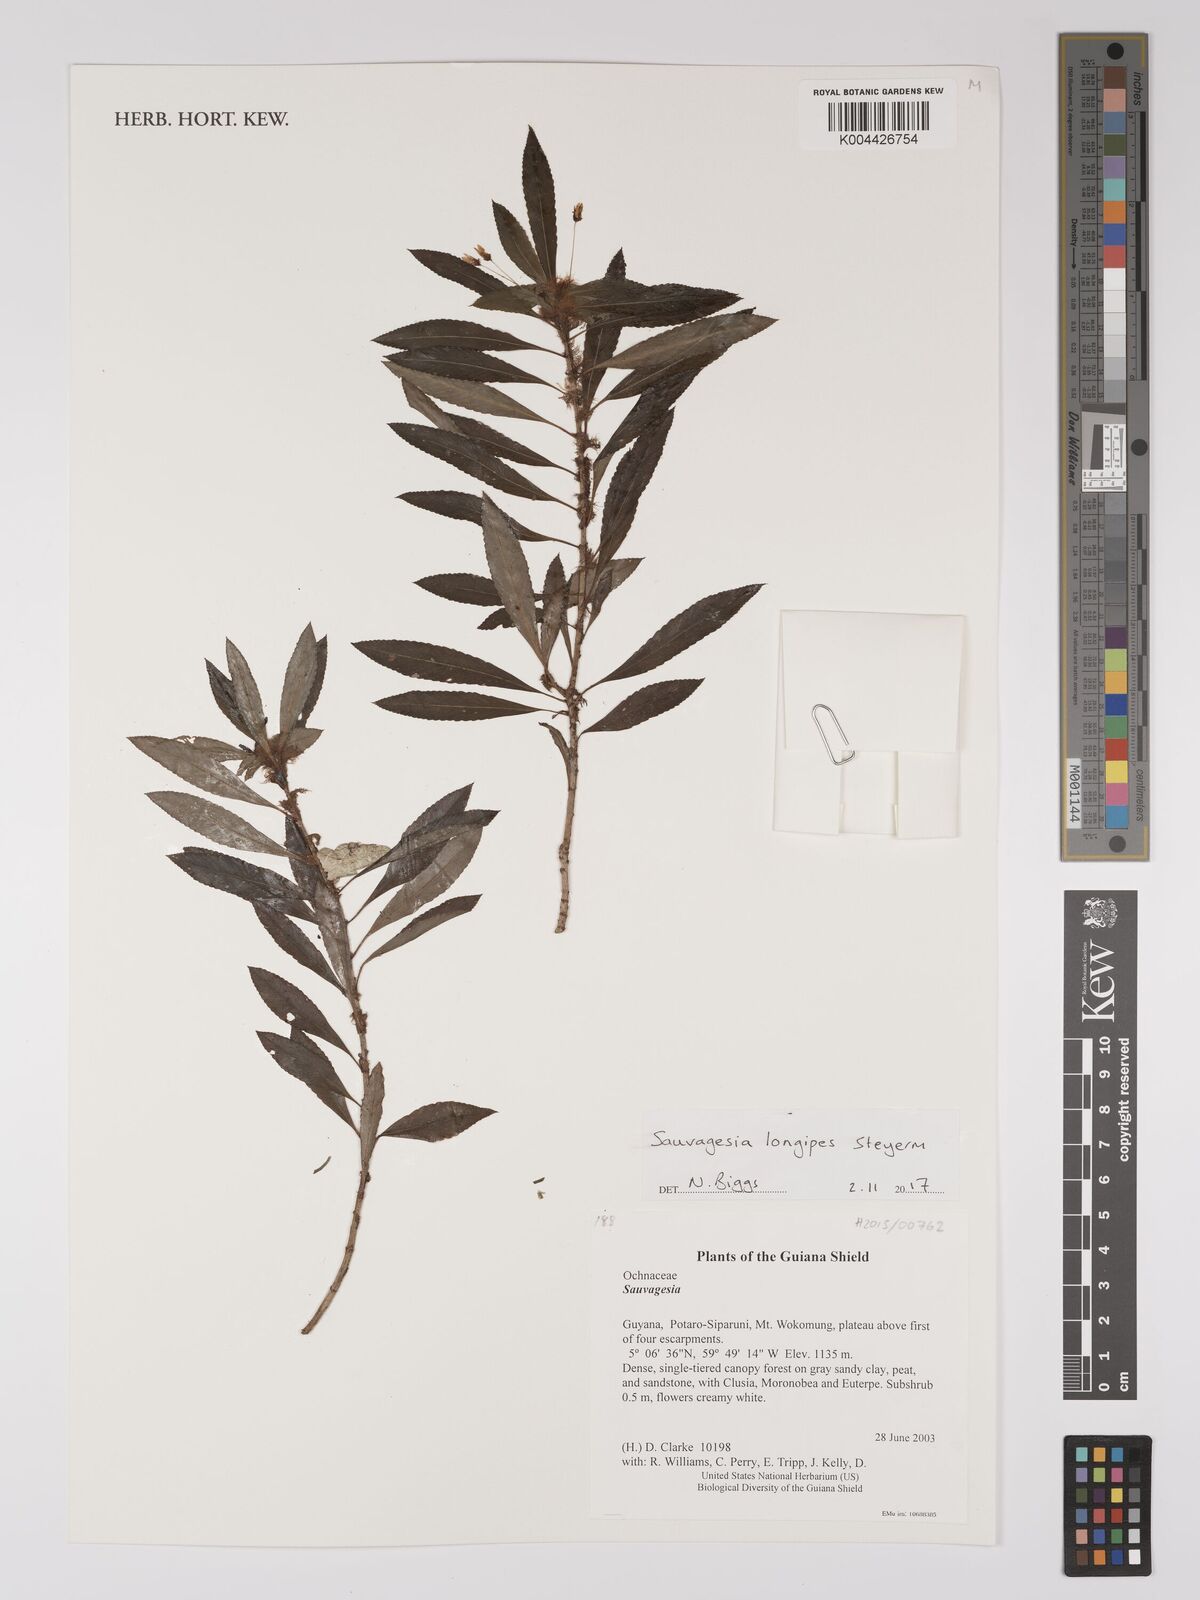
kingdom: Plantae
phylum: Tracheophyta
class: Magnoliopsida
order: Malpighiales
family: Ochnaceae
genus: Sauvagesia
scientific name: Sauvagesia longipes
